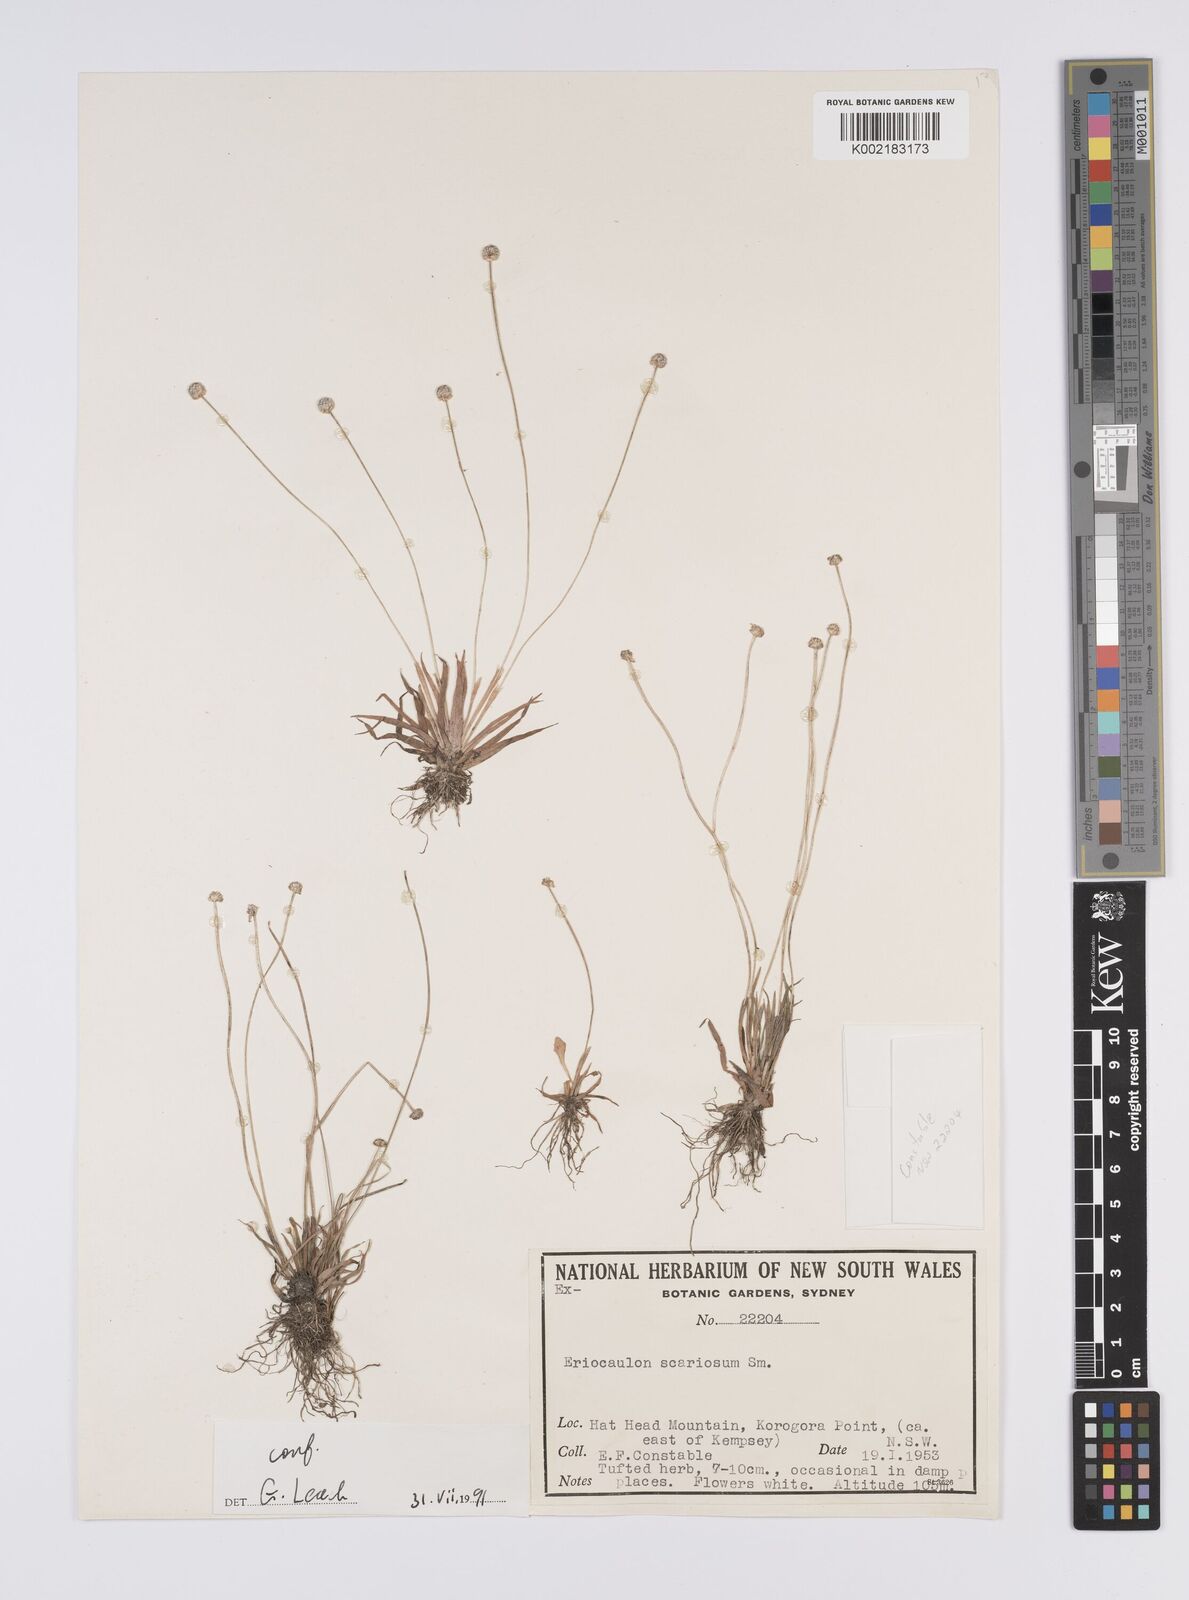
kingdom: Plantae
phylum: Tracheophyta
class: Liliopsida
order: Poales
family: Eriocaulaceae
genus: Eriocaulon
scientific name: Eriocaulon scariosum
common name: Rough pipewort
